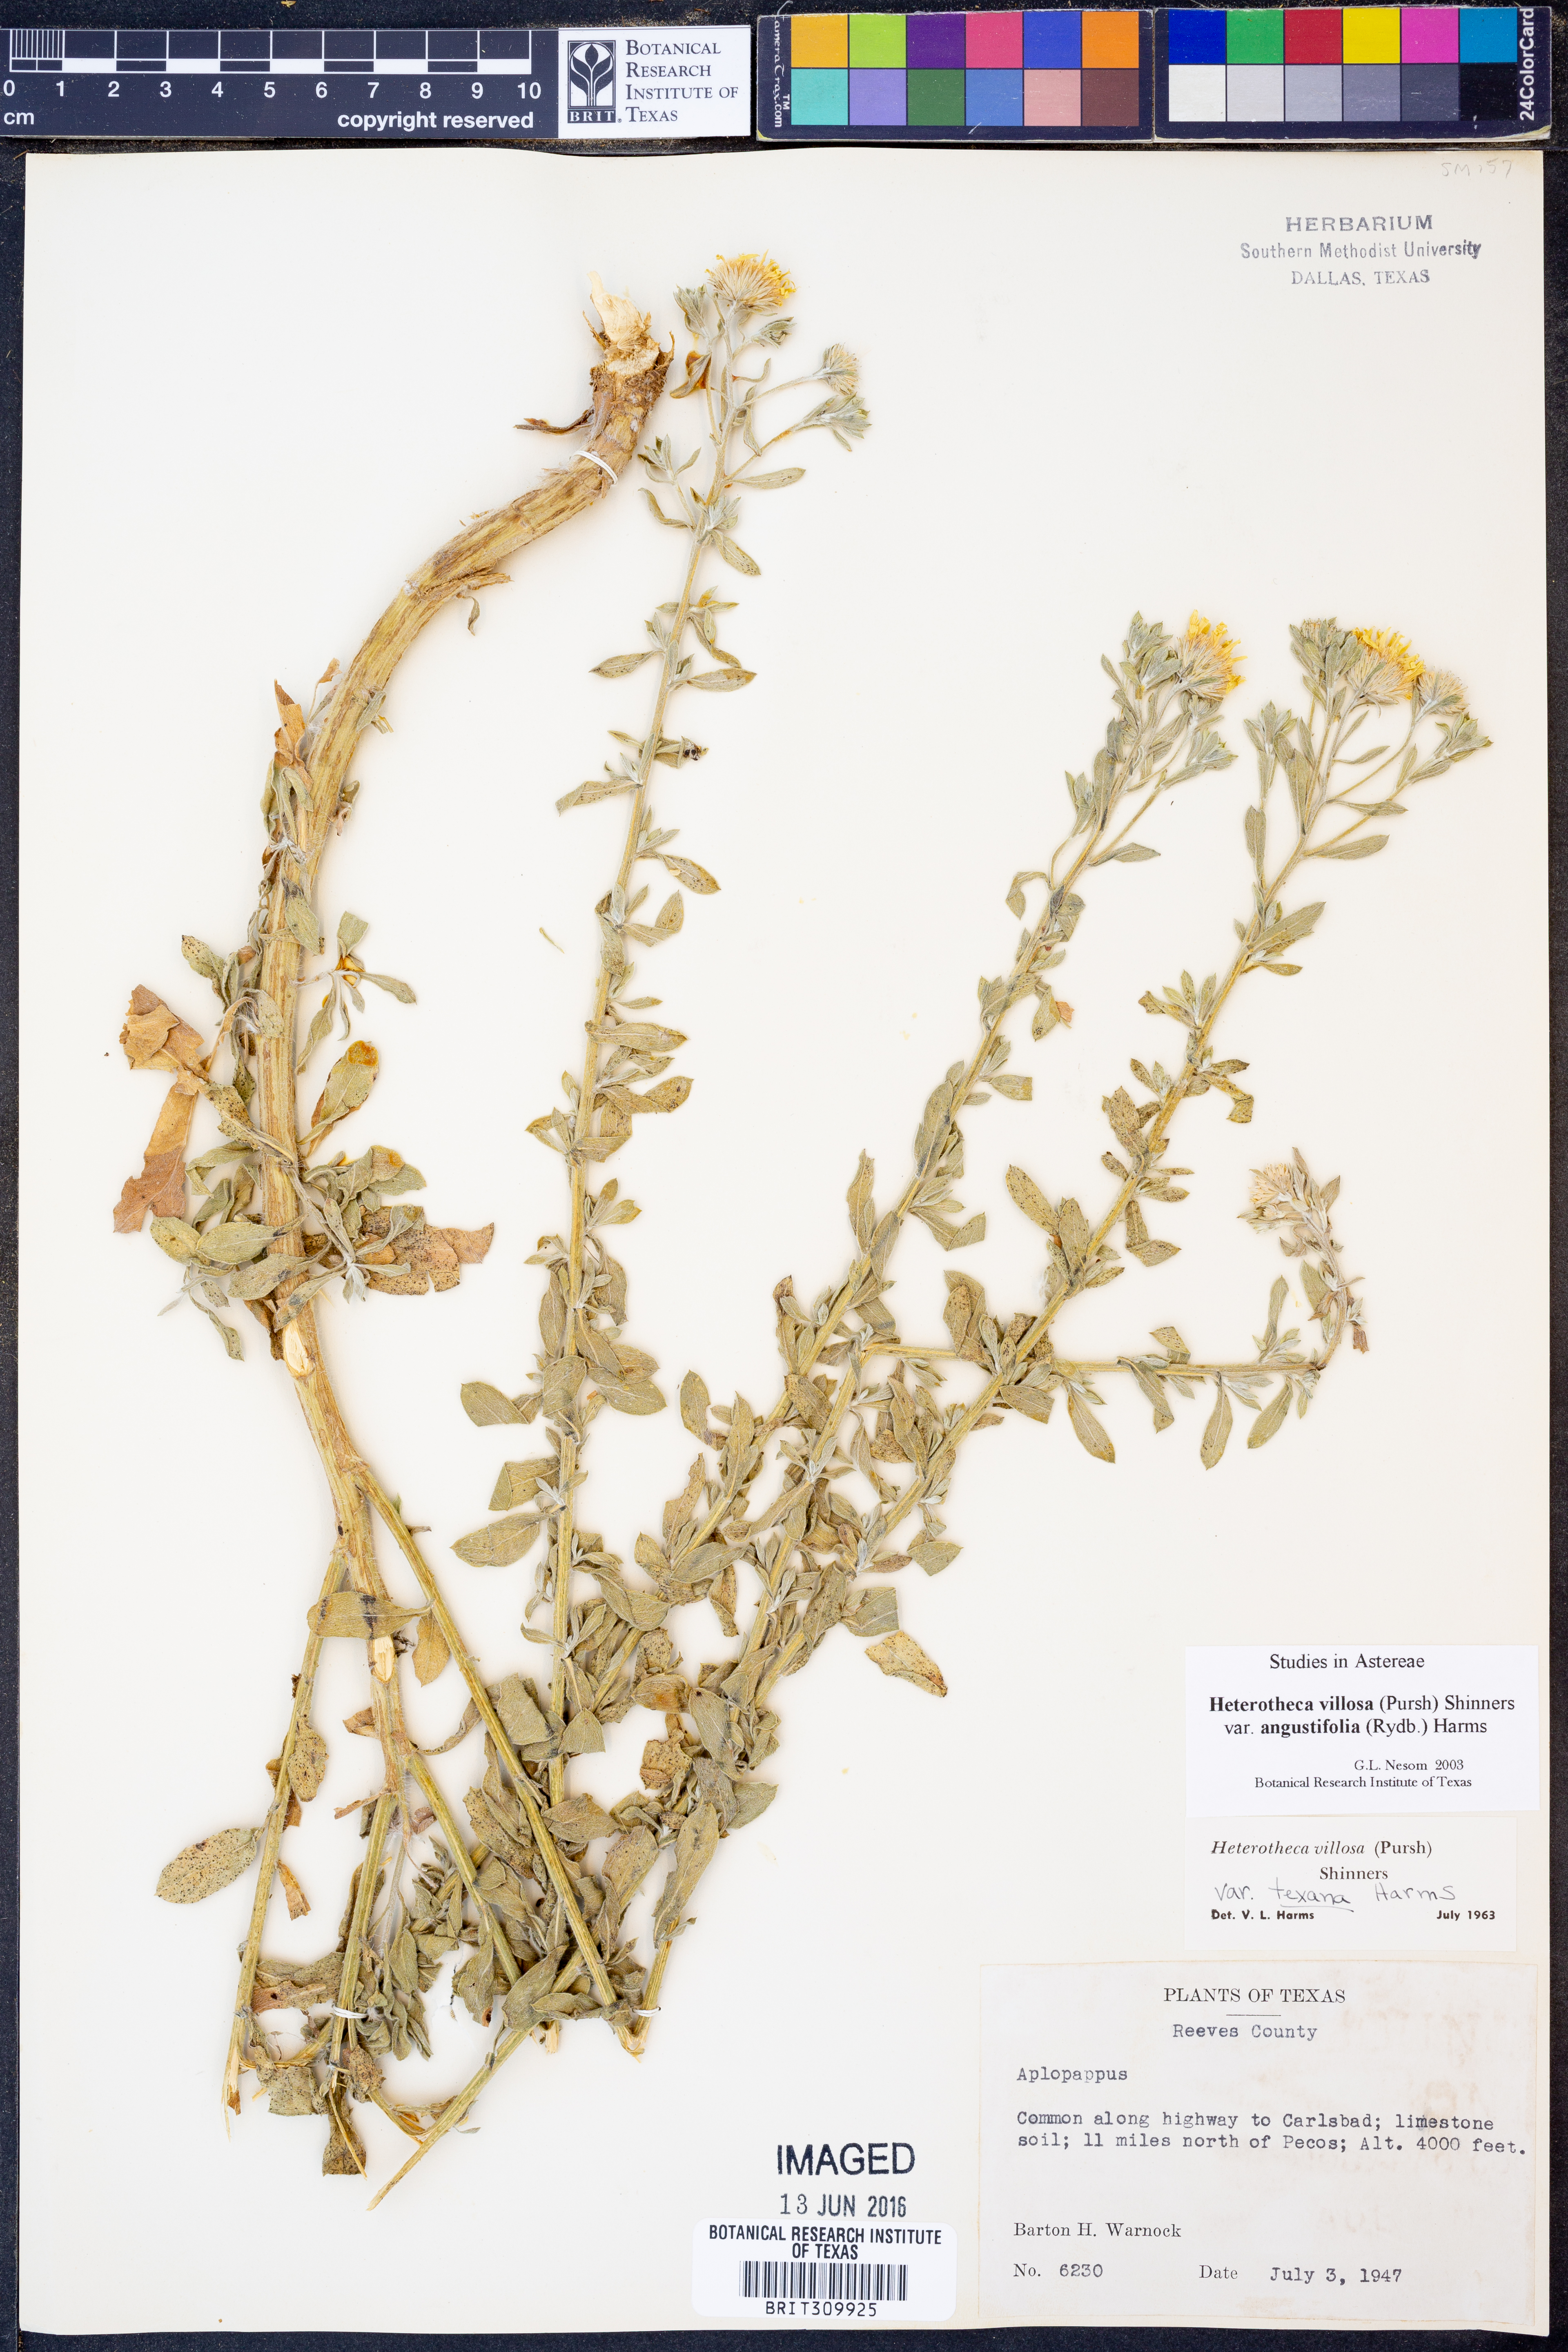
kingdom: Plantae
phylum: Tracheophyta
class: Magnoliopsida
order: Asterales
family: Asteraceae
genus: Heterotheca
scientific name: Heterotheca angustifolia
